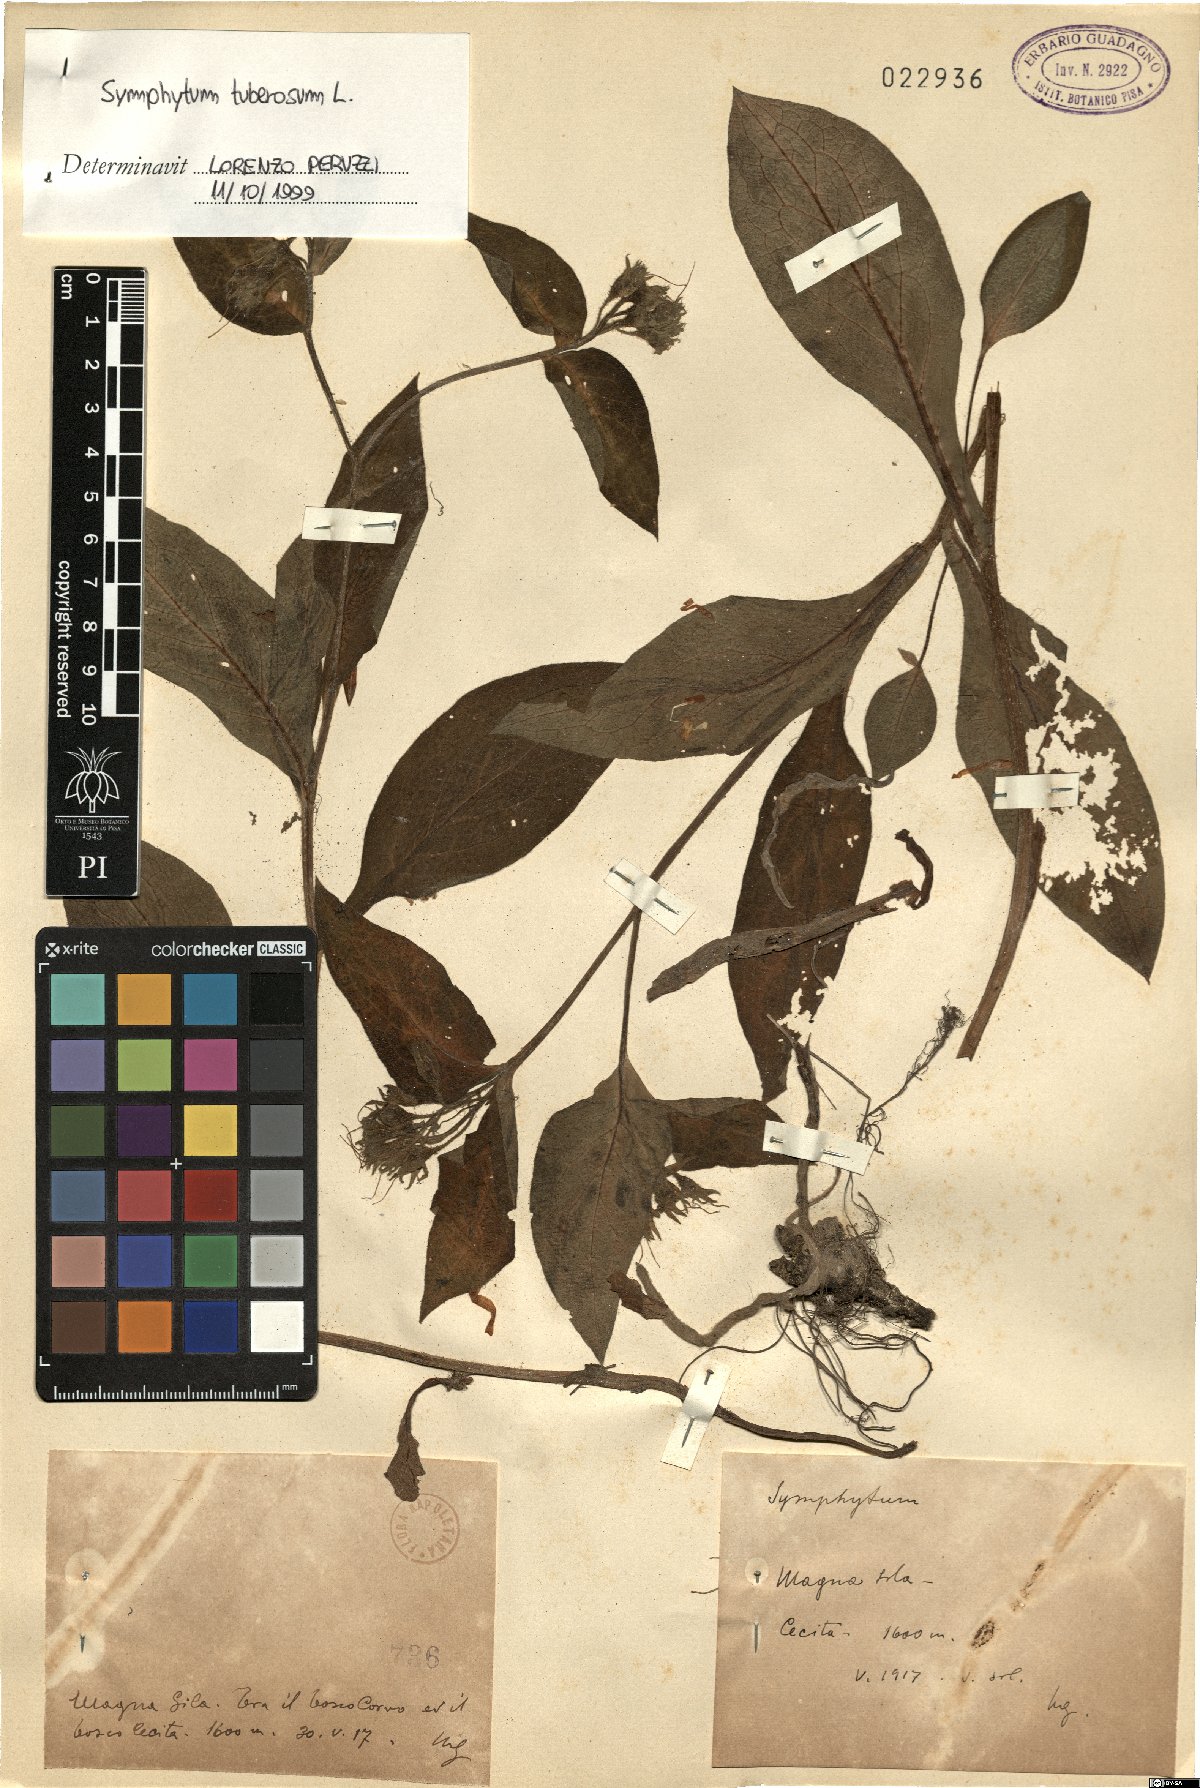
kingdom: Plantae
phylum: Tracheophyta
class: Magnoliopsida
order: Boraginales
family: Boraginaceae
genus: Symphytum
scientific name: Symphytum tuberosum
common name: Tuberous comfrey
